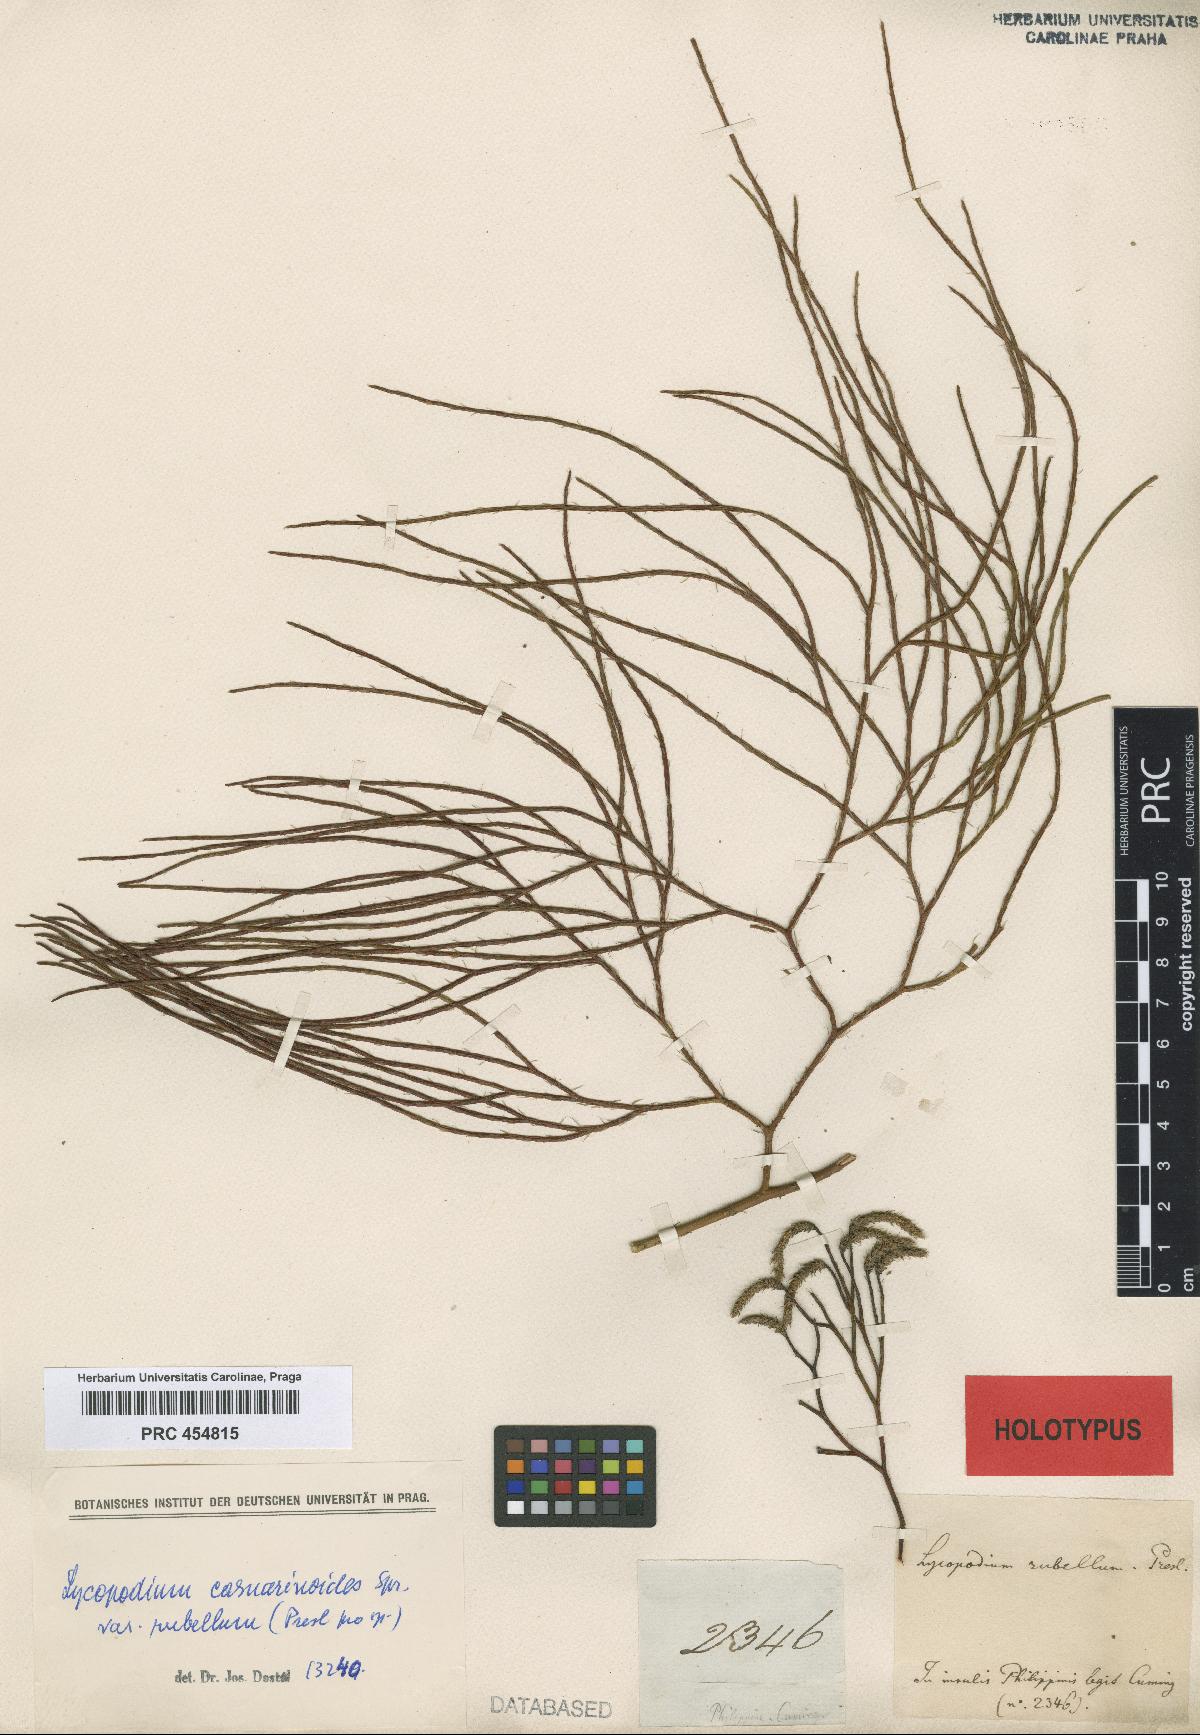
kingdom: Plantae
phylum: Tracheophyta
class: Lycopodiopsida
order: Lycopodiales
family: Lycopodiaceae
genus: Lycopodiastrum
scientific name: Lycopodiastrum casuarinoides
